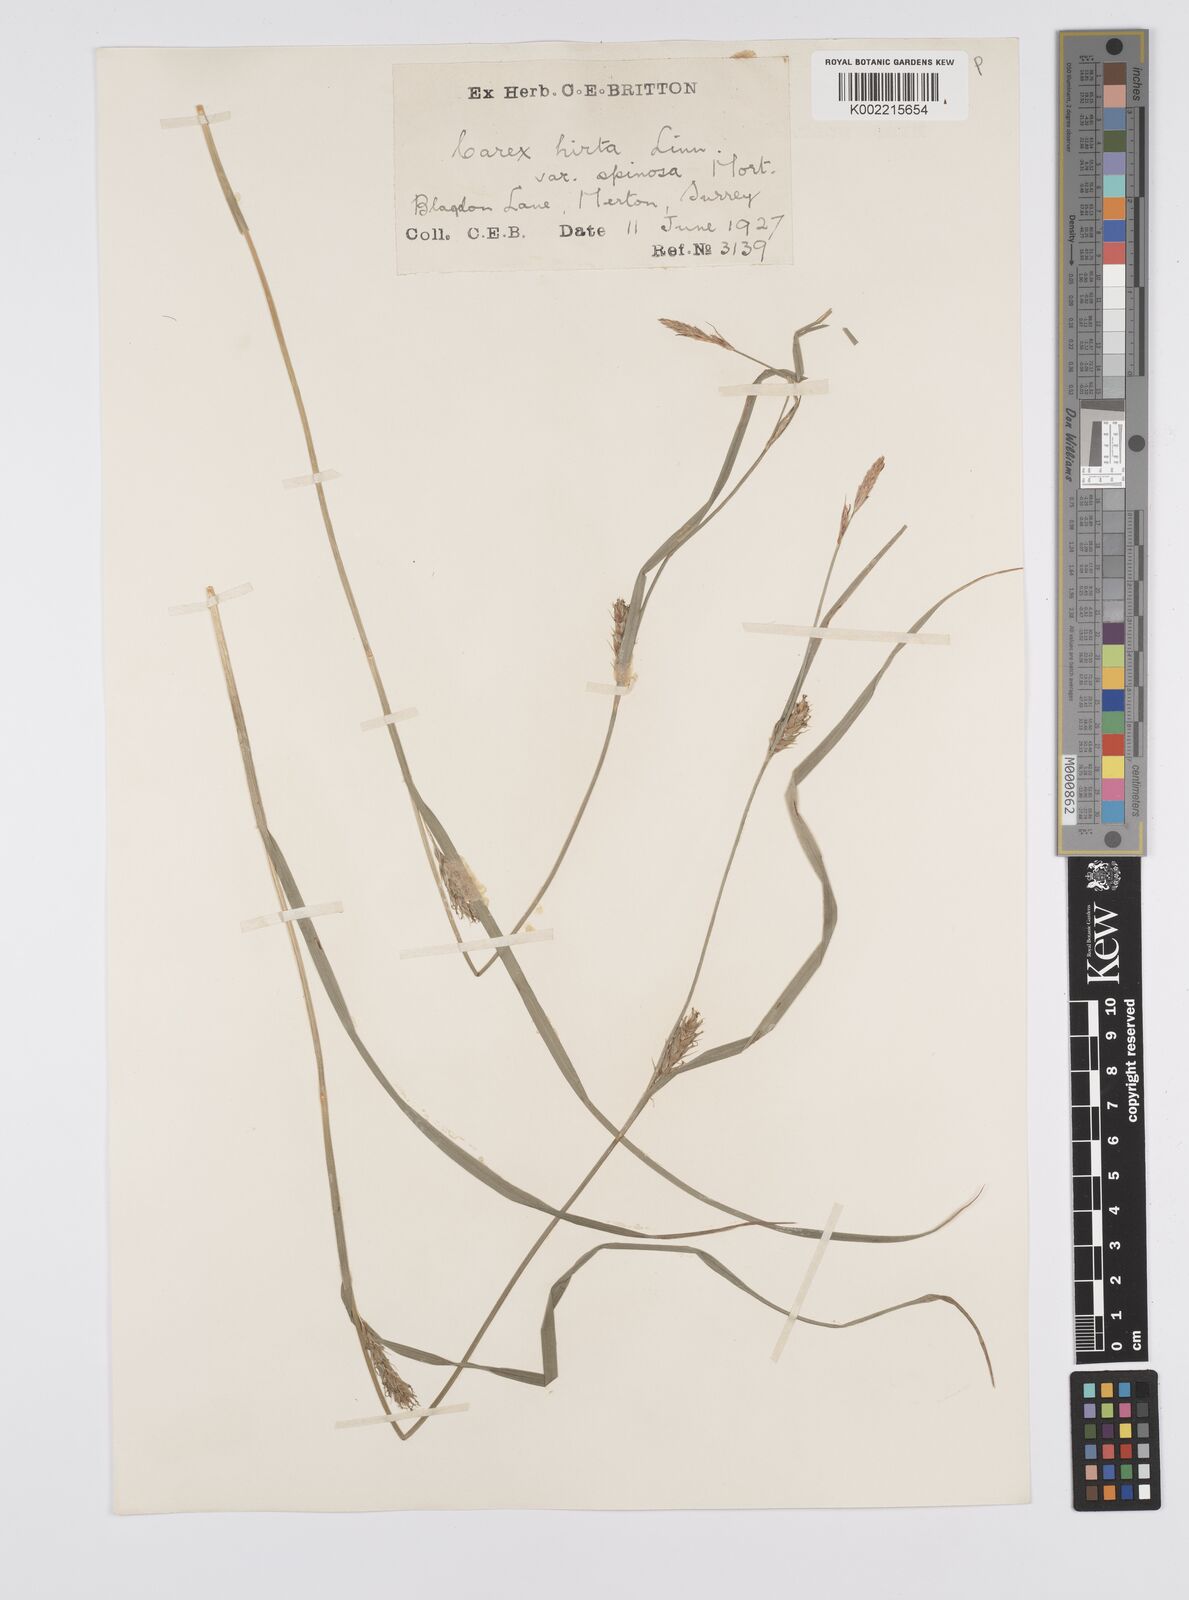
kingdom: Plantae
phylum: Tracheophyta
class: Liliopsida
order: Poales
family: Cyperaceae
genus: Carex
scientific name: Carex hirta
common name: Hairy sedge
